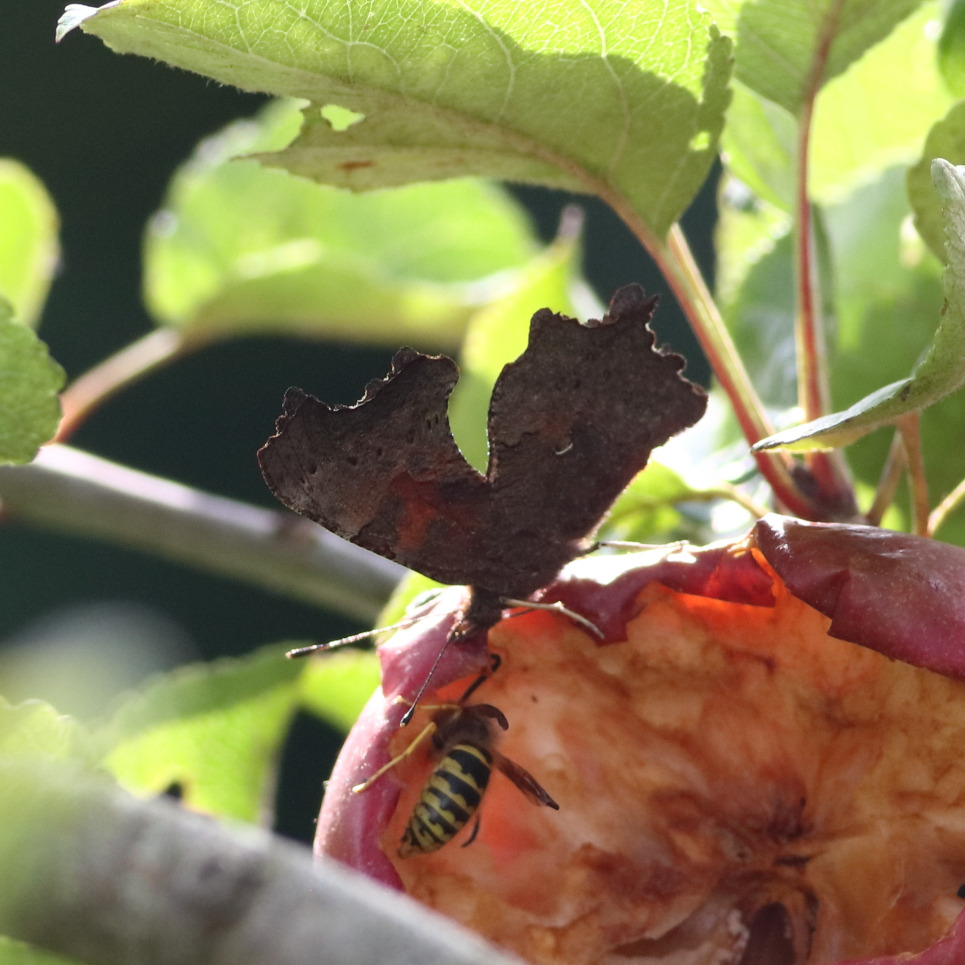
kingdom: Animalia
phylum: Arthropoda
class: Insecta
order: Lepidoptera
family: Nymphalidae
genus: Polygonia
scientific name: Polygonia c-album
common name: Det hvide C
